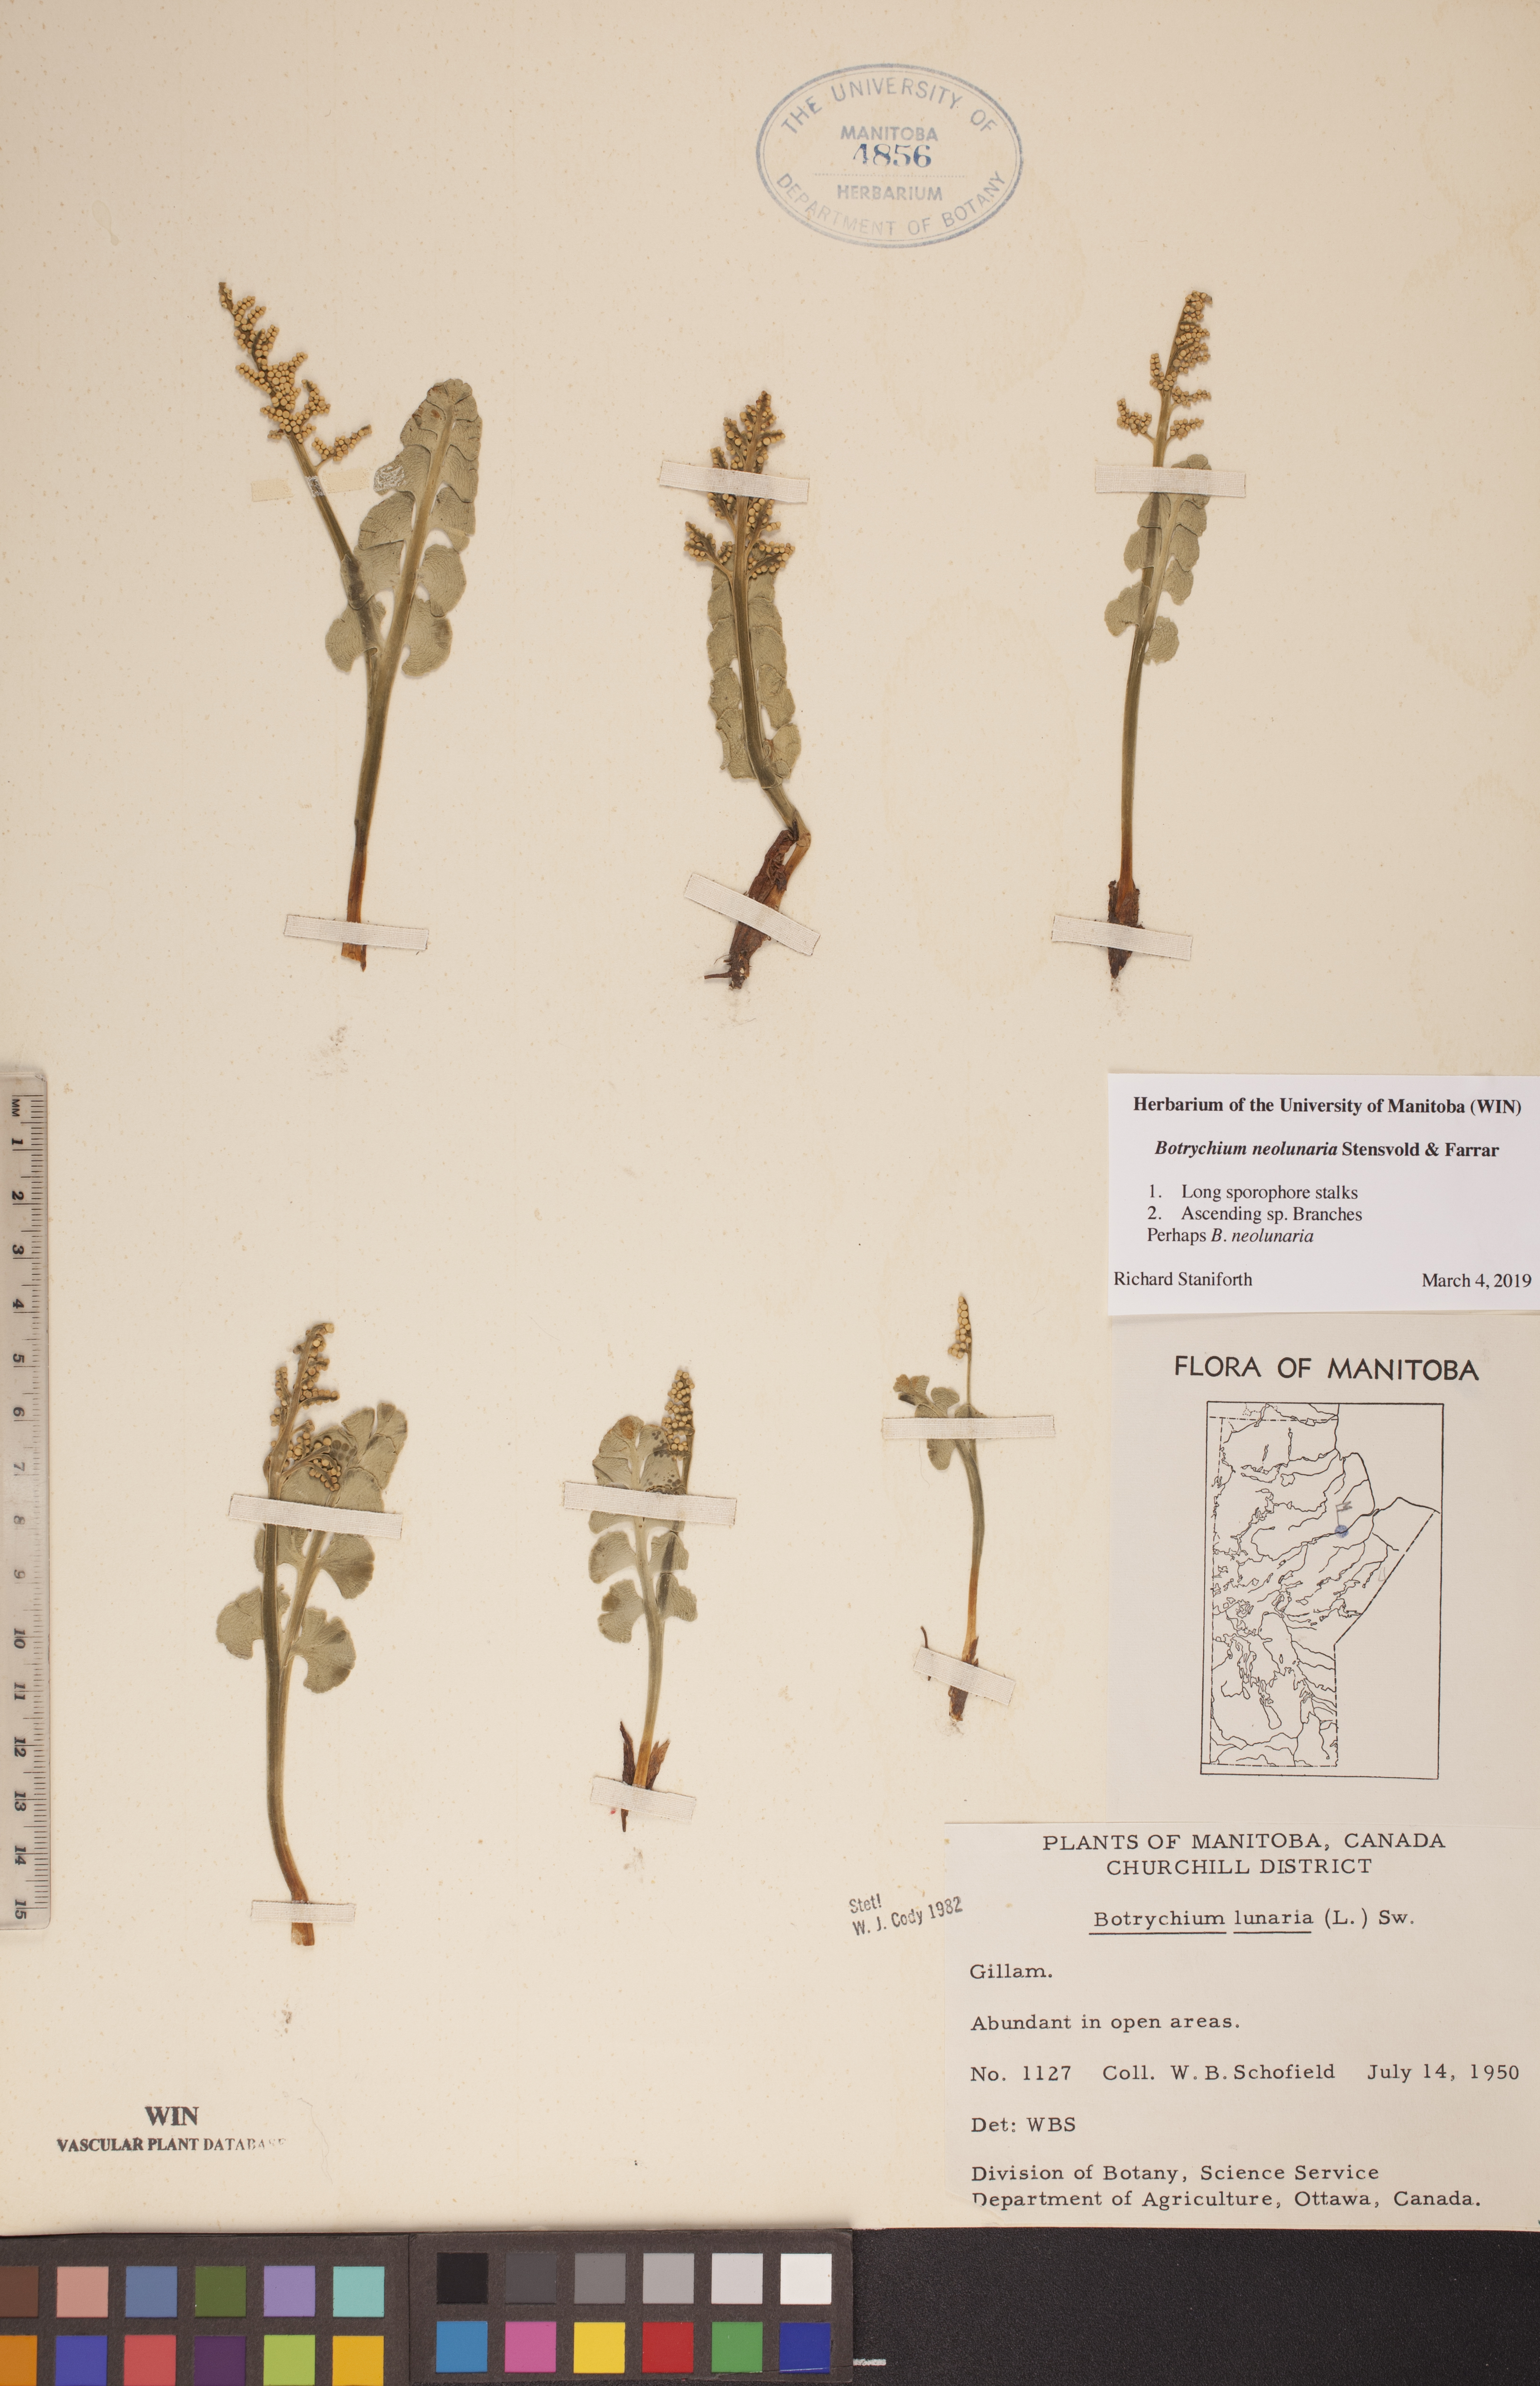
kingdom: Plantae
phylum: Tracheophyta
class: Polypodiopsida
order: Ophioglossales
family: Ophioglossaceae
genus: Botrychium
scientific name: Botrychium neolunaria
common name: New world moonwort
